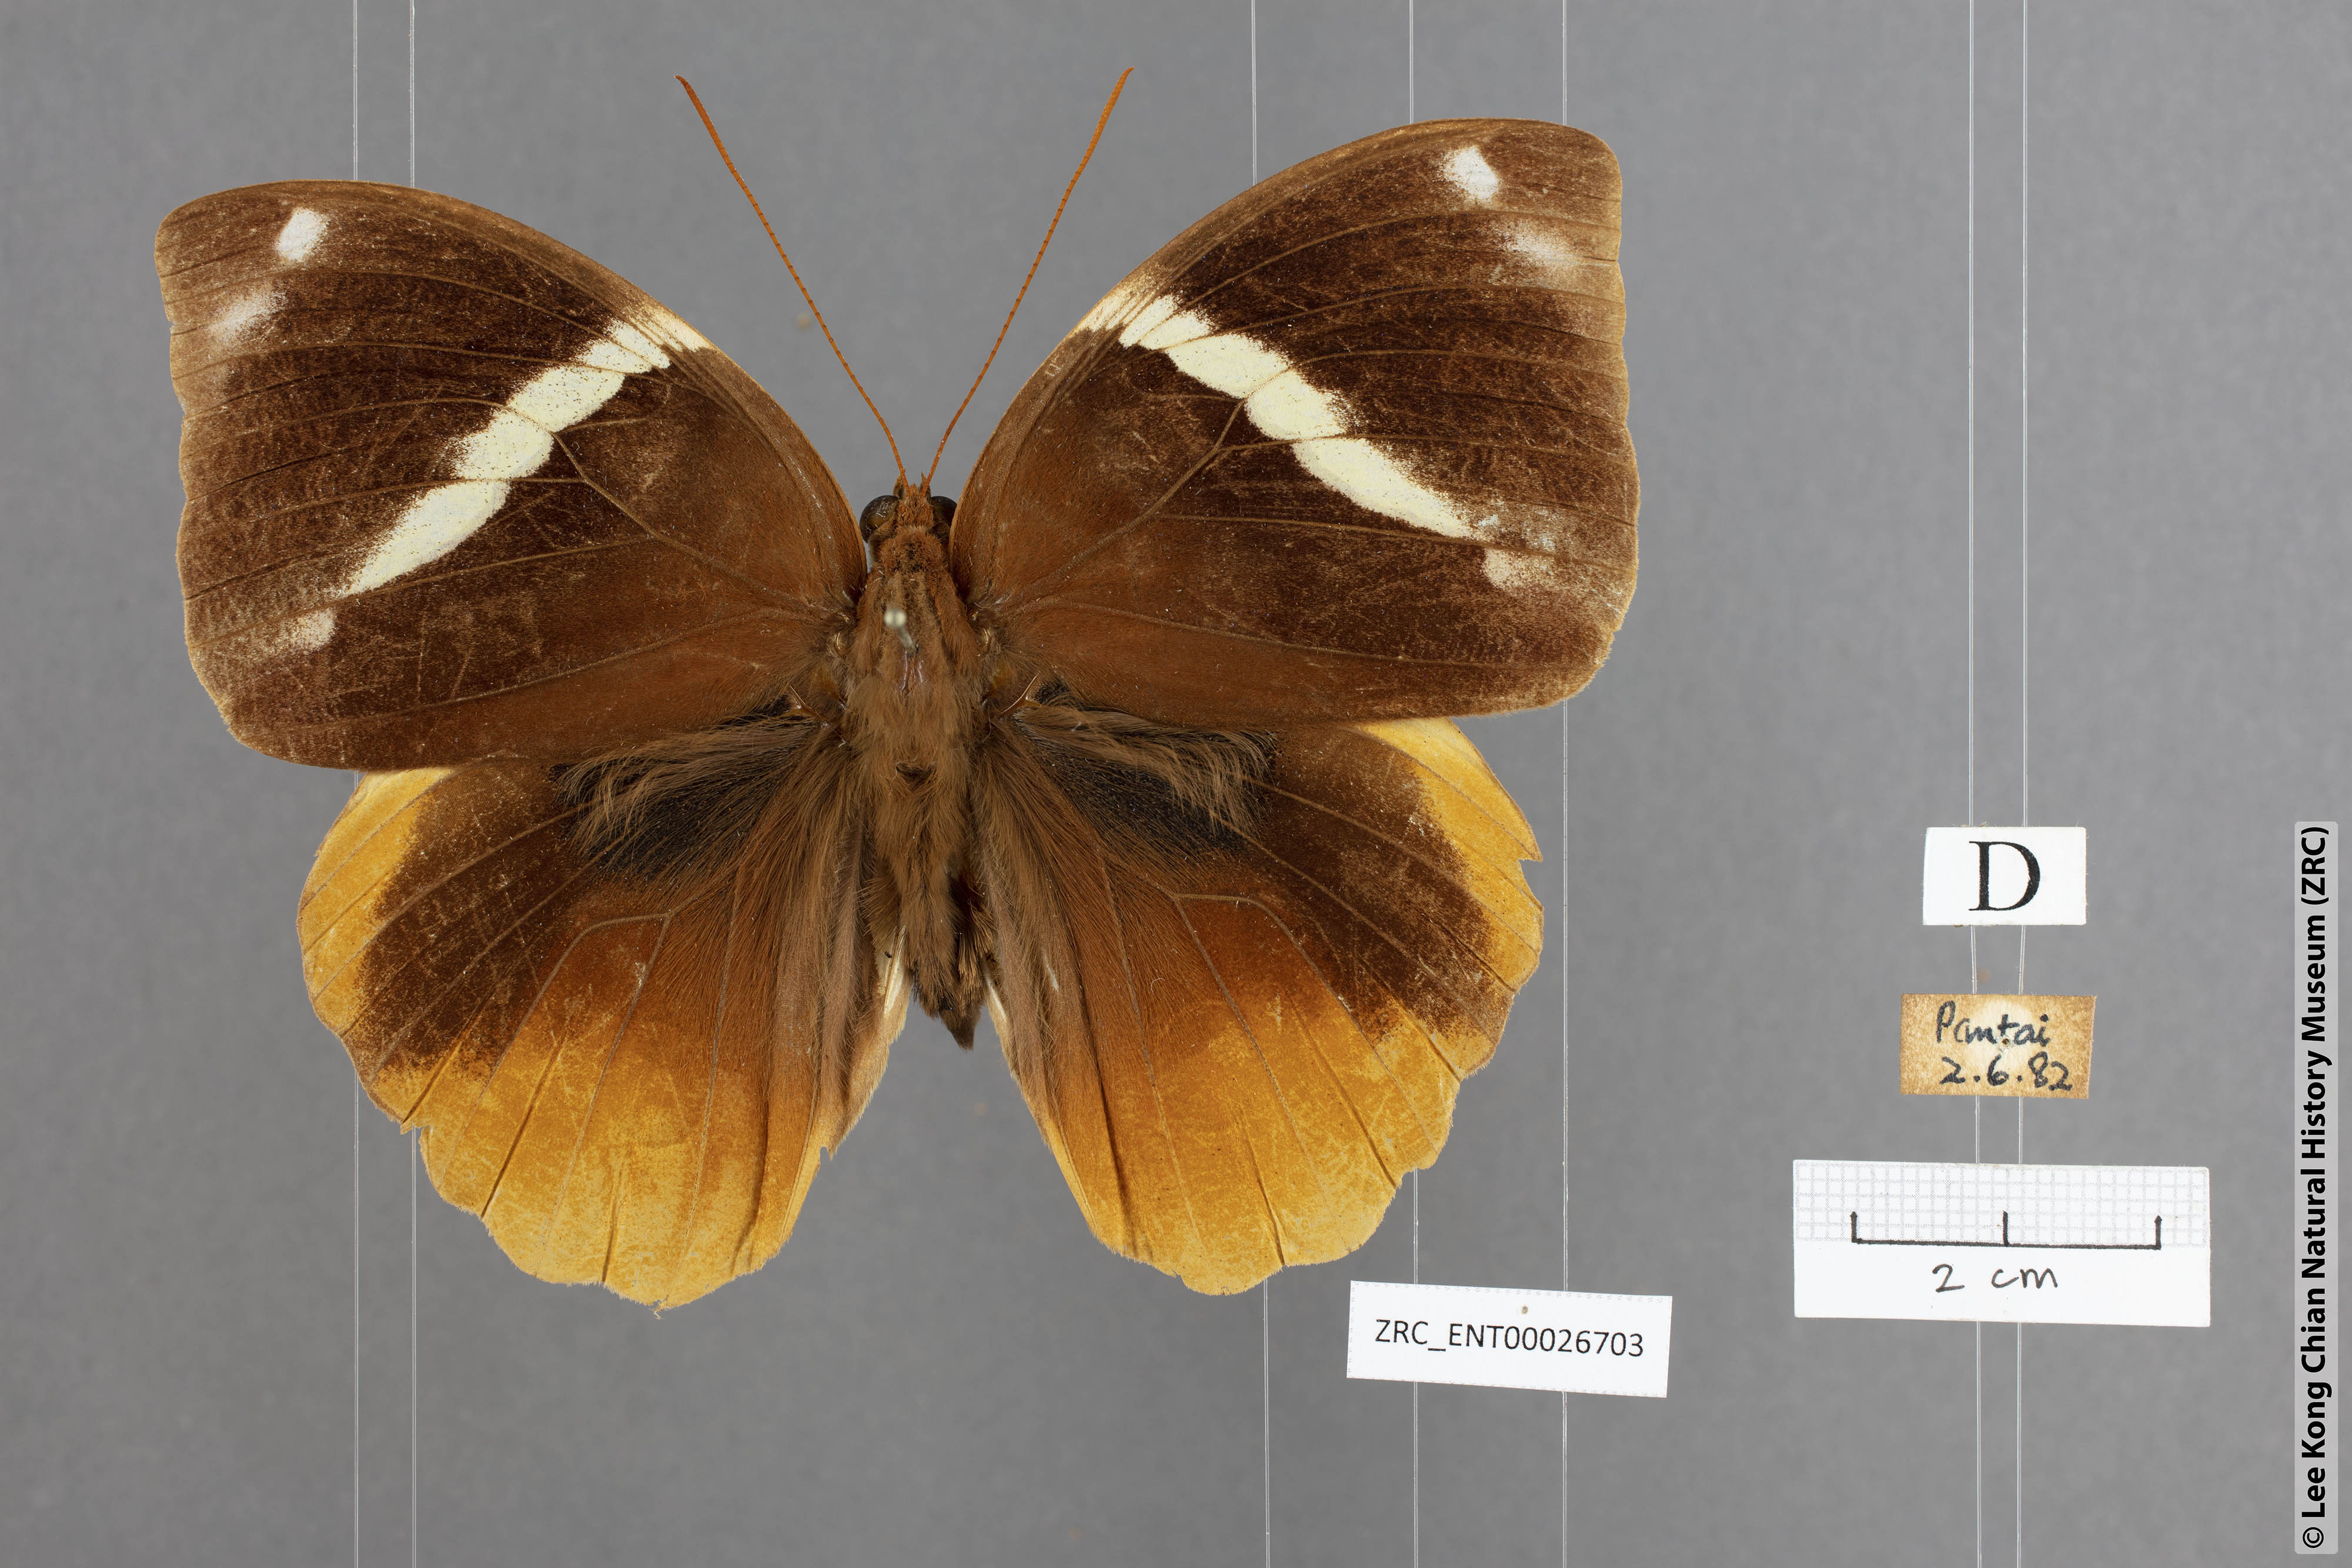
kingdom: Animalia
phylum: Arthropoda
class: Insecta
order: Lepidoptera
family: Nymphalidae
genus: Thauria
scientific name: Thauria aliris
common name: Tufted jungle king
